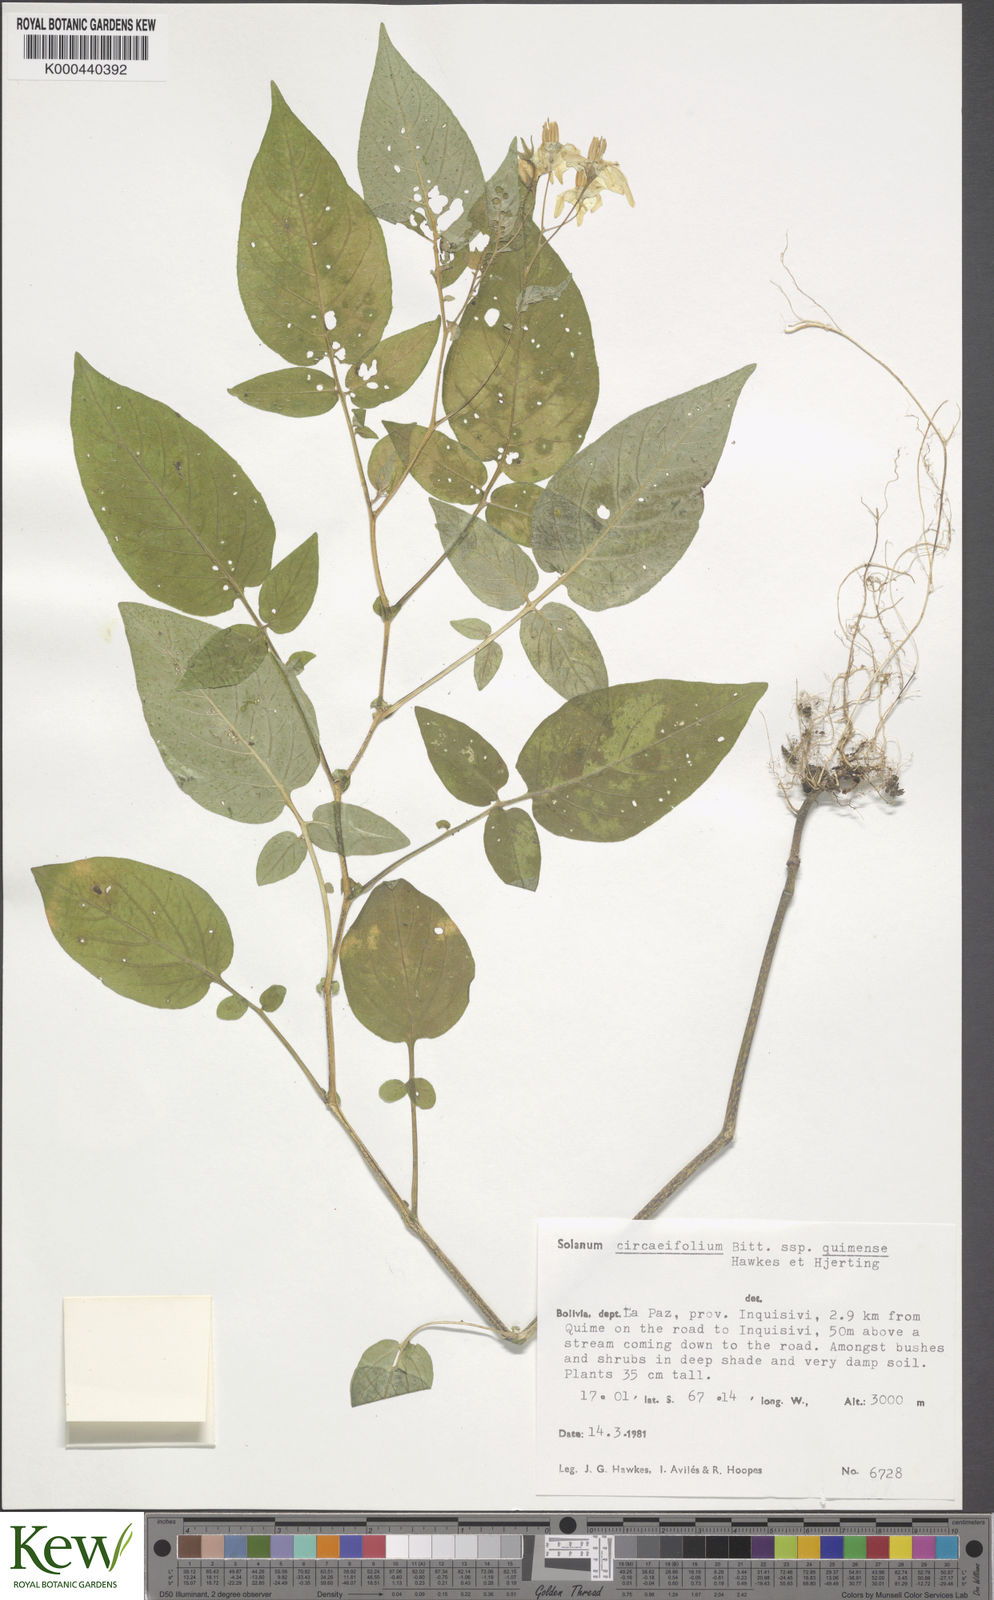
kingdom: Plantae
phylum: Tracheophyta
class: Magnoliopsida
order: Solanales
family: Solanaceae
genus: Solanum
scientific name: Solanum stipuloideum
